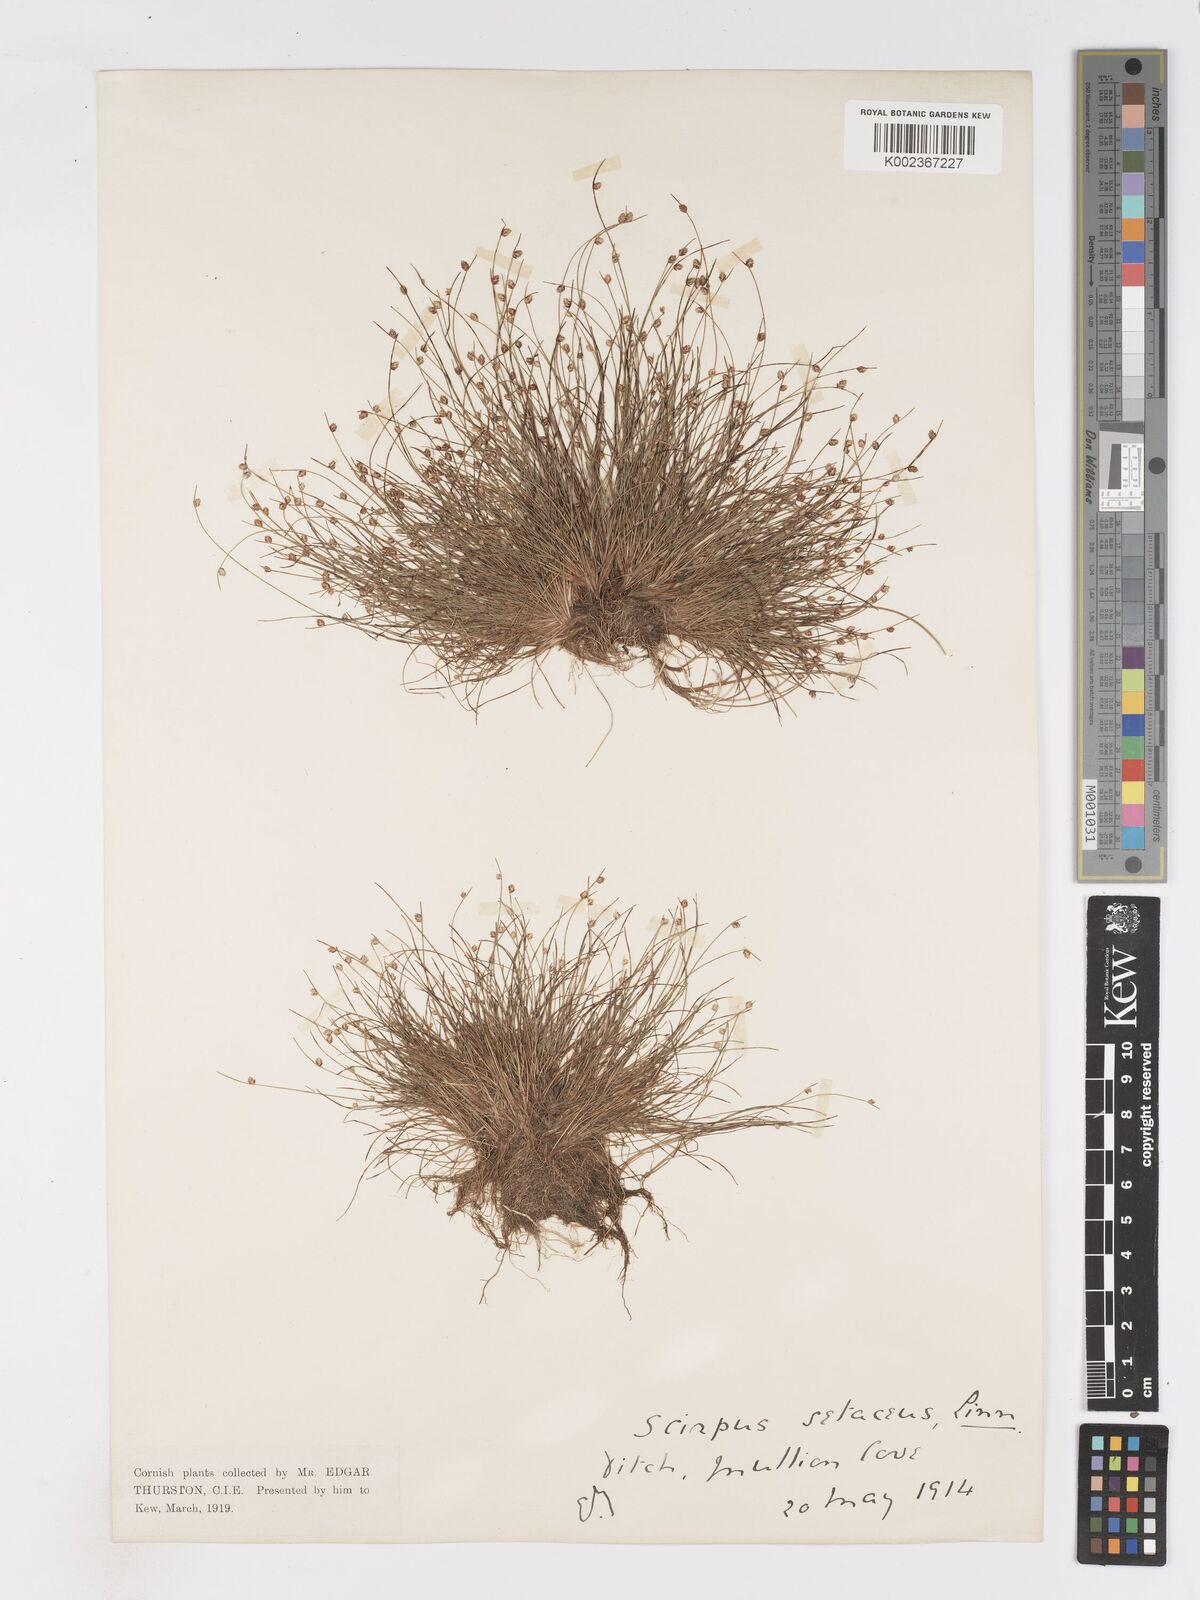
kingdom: Plantae
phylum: Tracheophyta
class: Liliopsida
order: Poales
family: Cyperaceae
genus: Isolepis
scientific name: Isolepis cernua
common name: Slender club-rush
